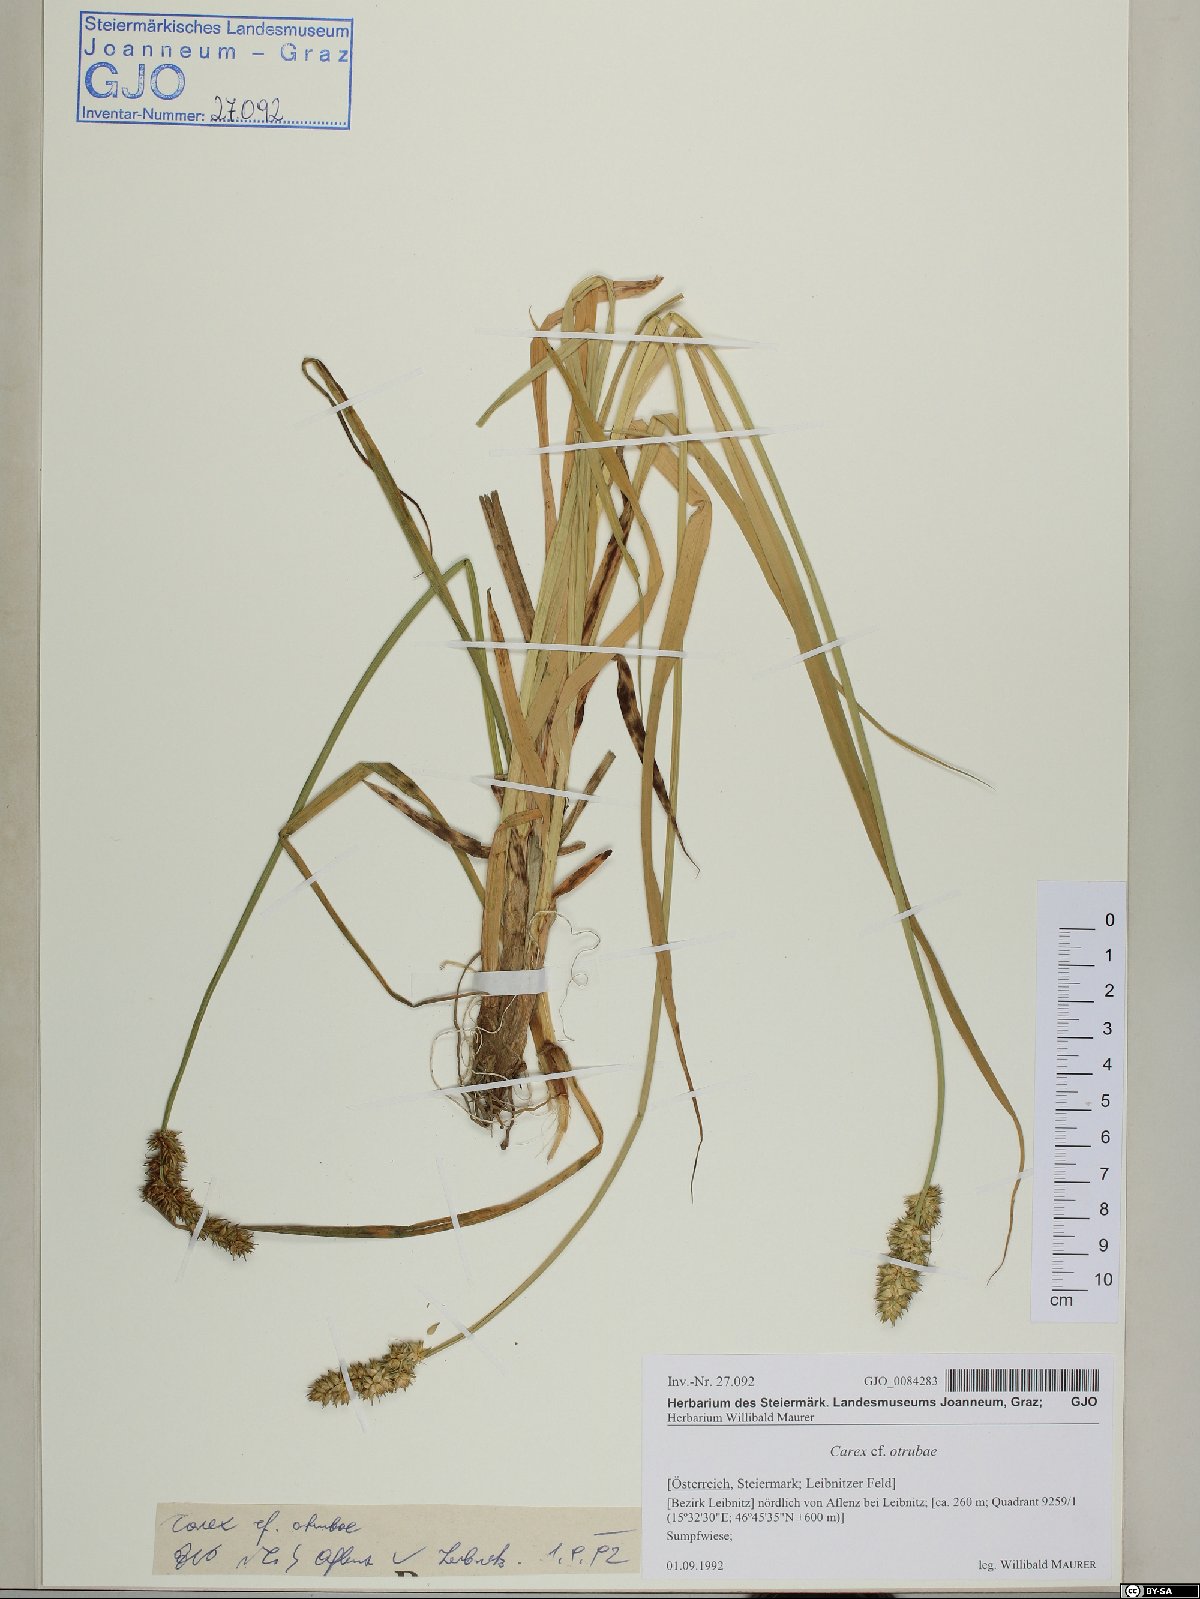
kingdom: Plantae
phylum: Tracheophyta
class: Liliopsida
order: Poales
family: Cyperaceae
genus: Carex
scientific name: Carex otrubae
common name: False fox-sedge
